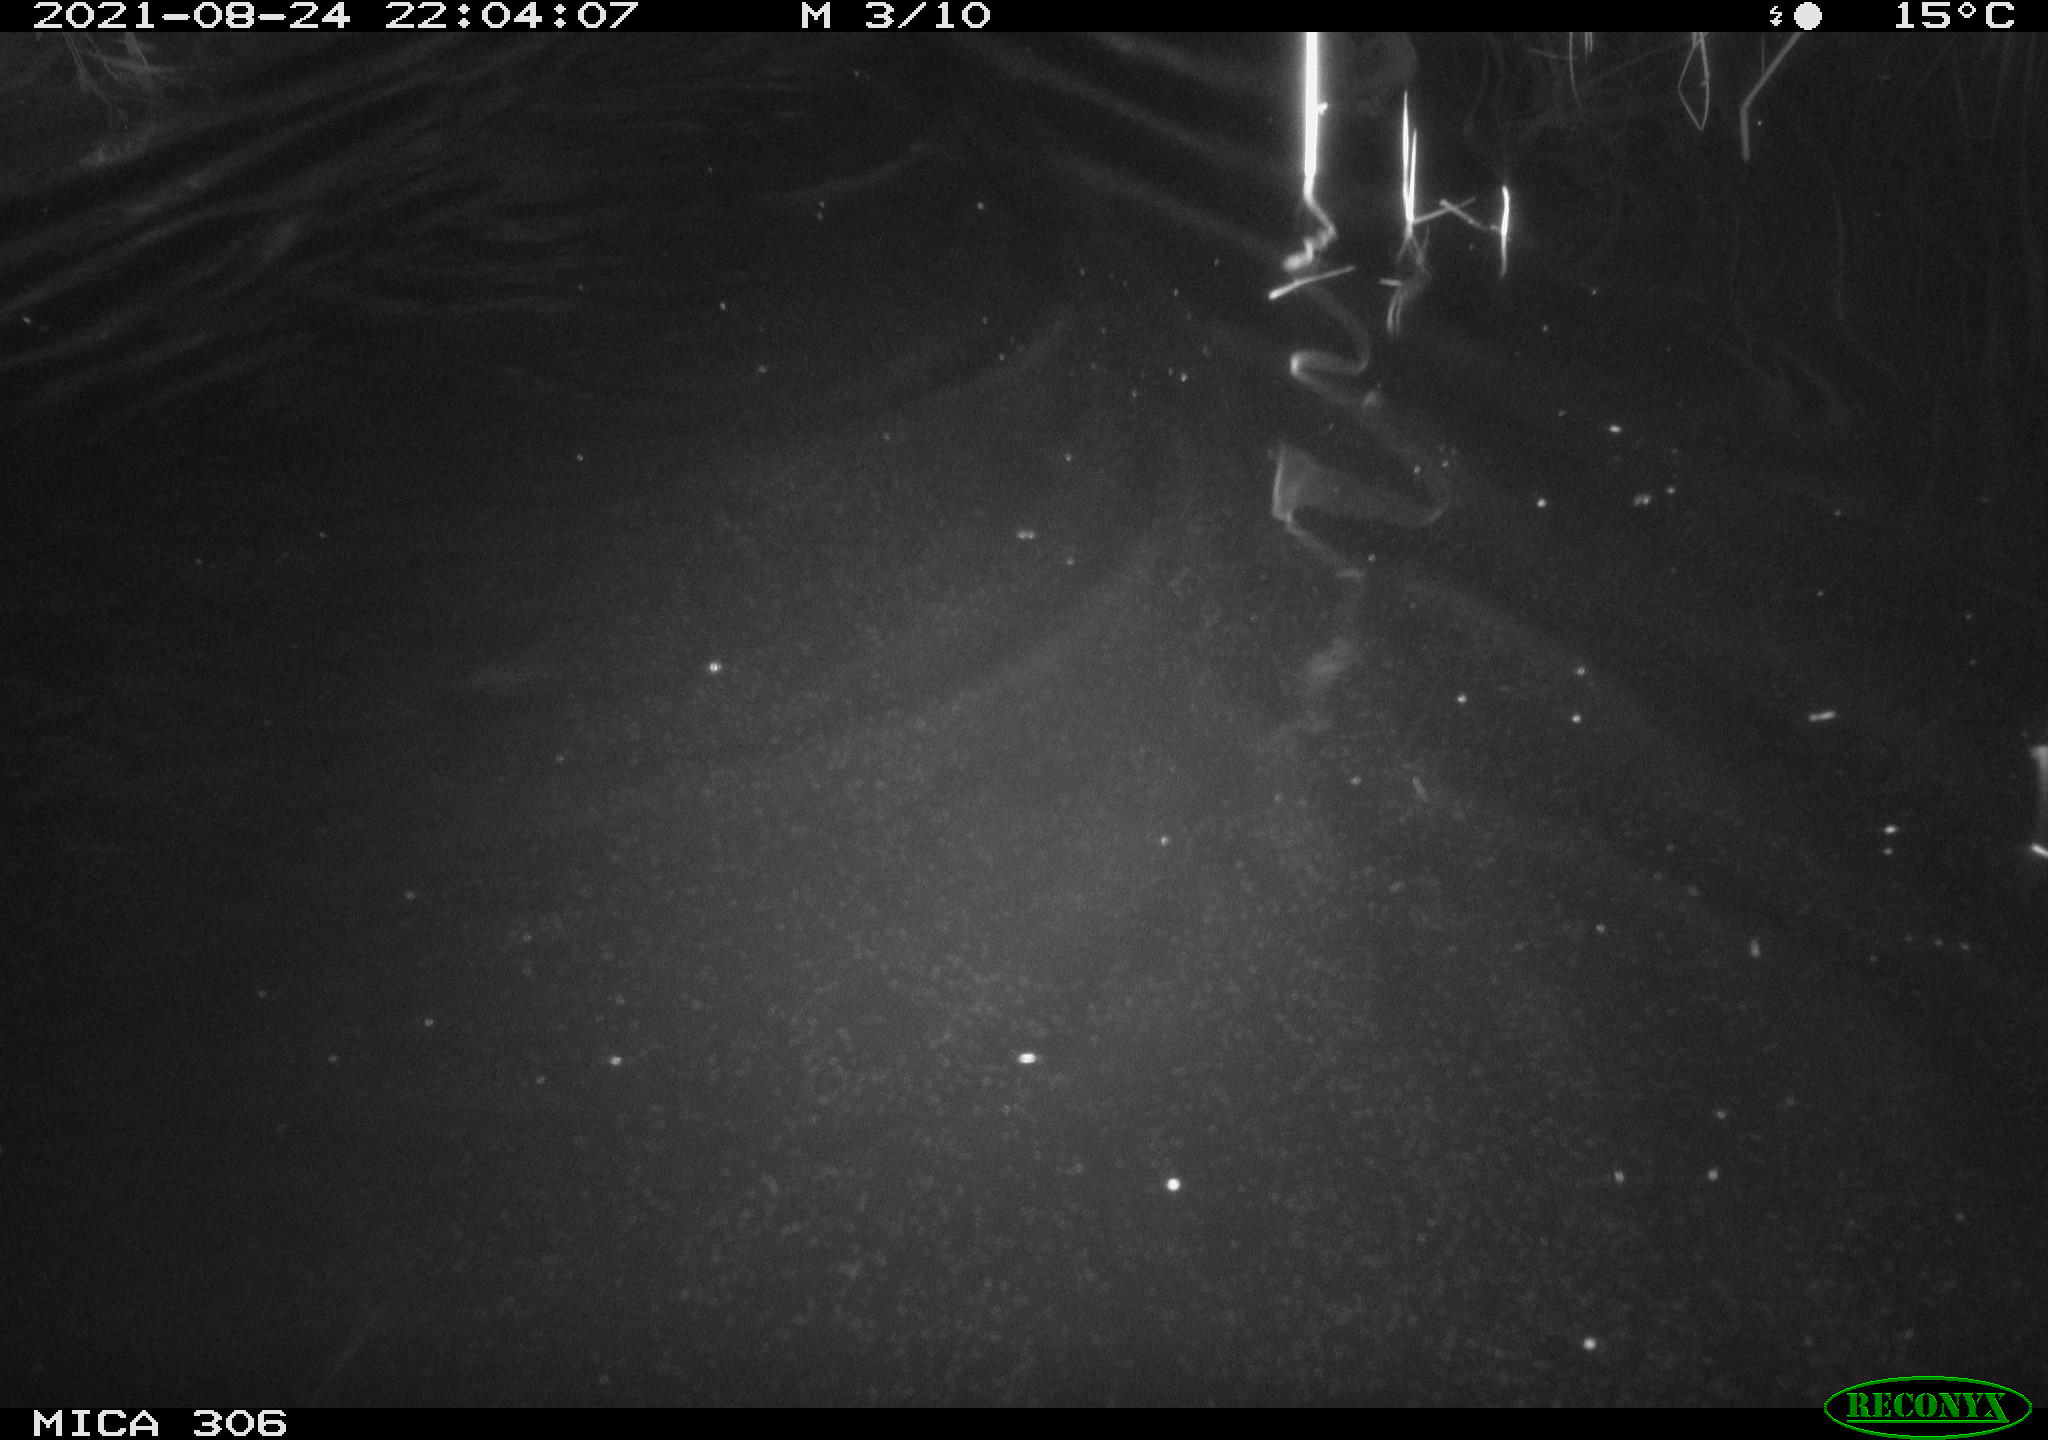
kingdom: Animalia
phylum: Chordata
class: Mammalia
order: Rodentia
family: Cricetidae
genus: Ondatra
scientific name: Ondatra zibethicus
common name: Muskrat
